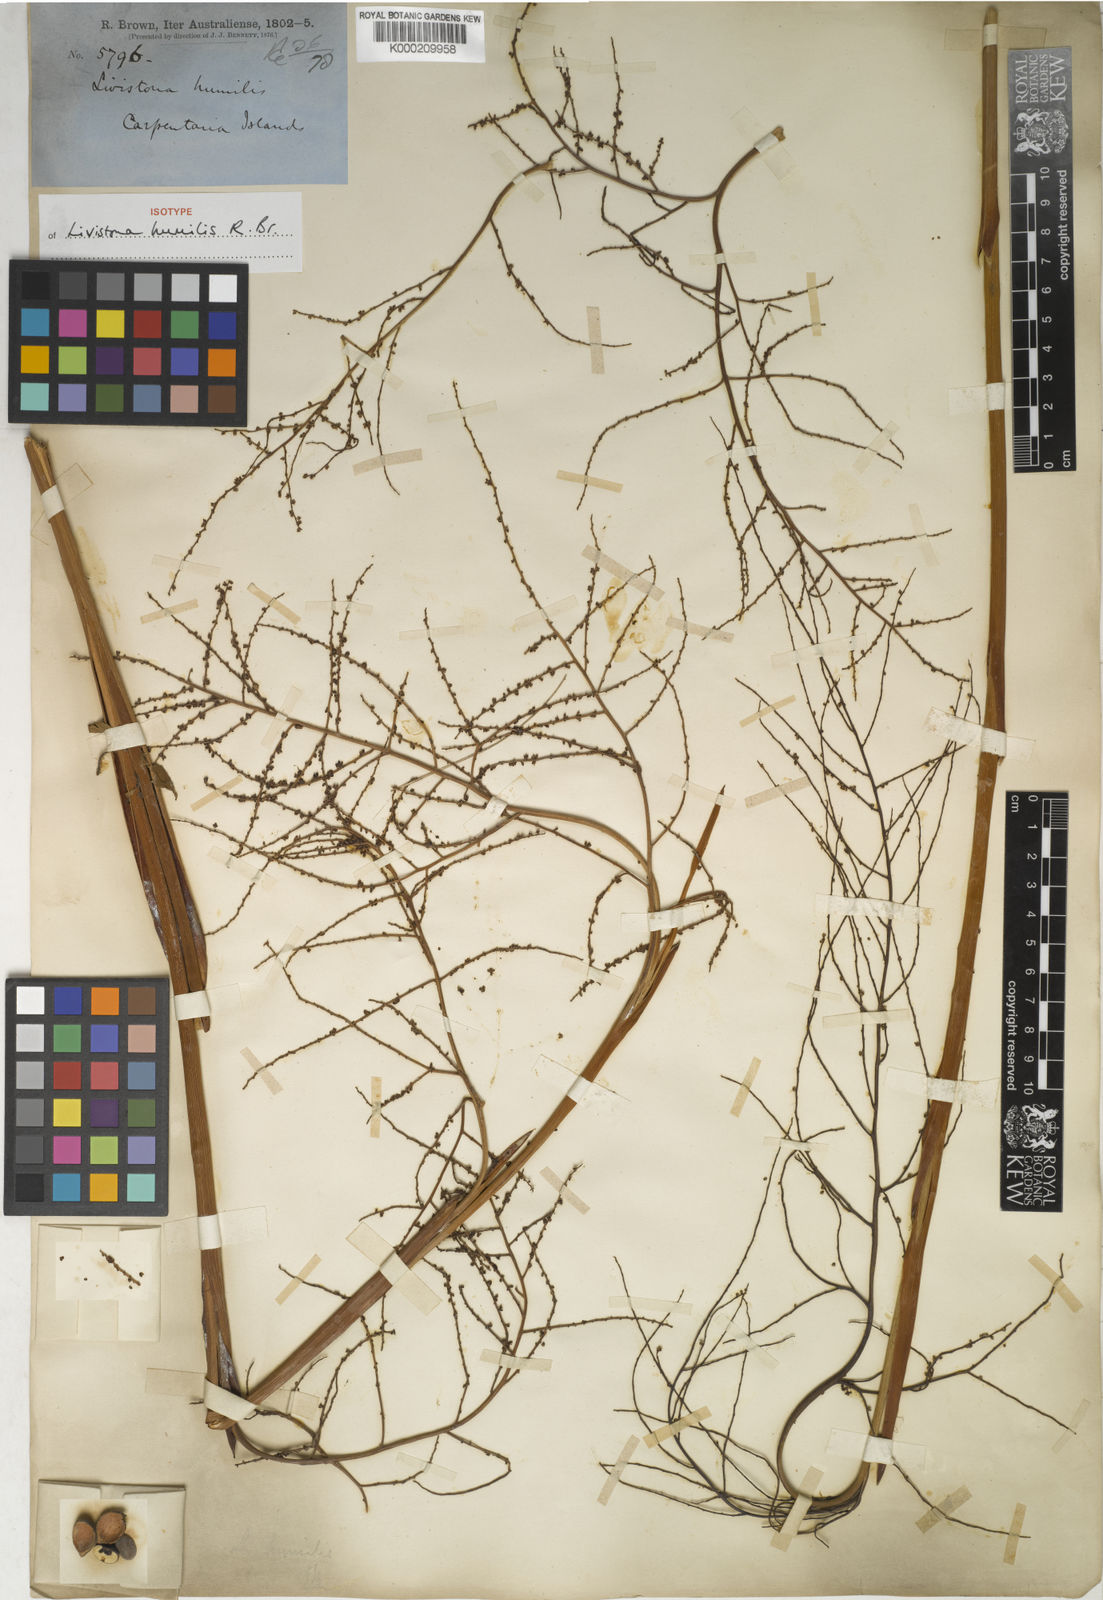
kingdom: Plantae
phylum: Tracheophyta
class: Liliopsida
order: Arecales
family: Arecaceae
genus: Livistona
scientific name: Livistona humilis
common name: Cabbage palm
